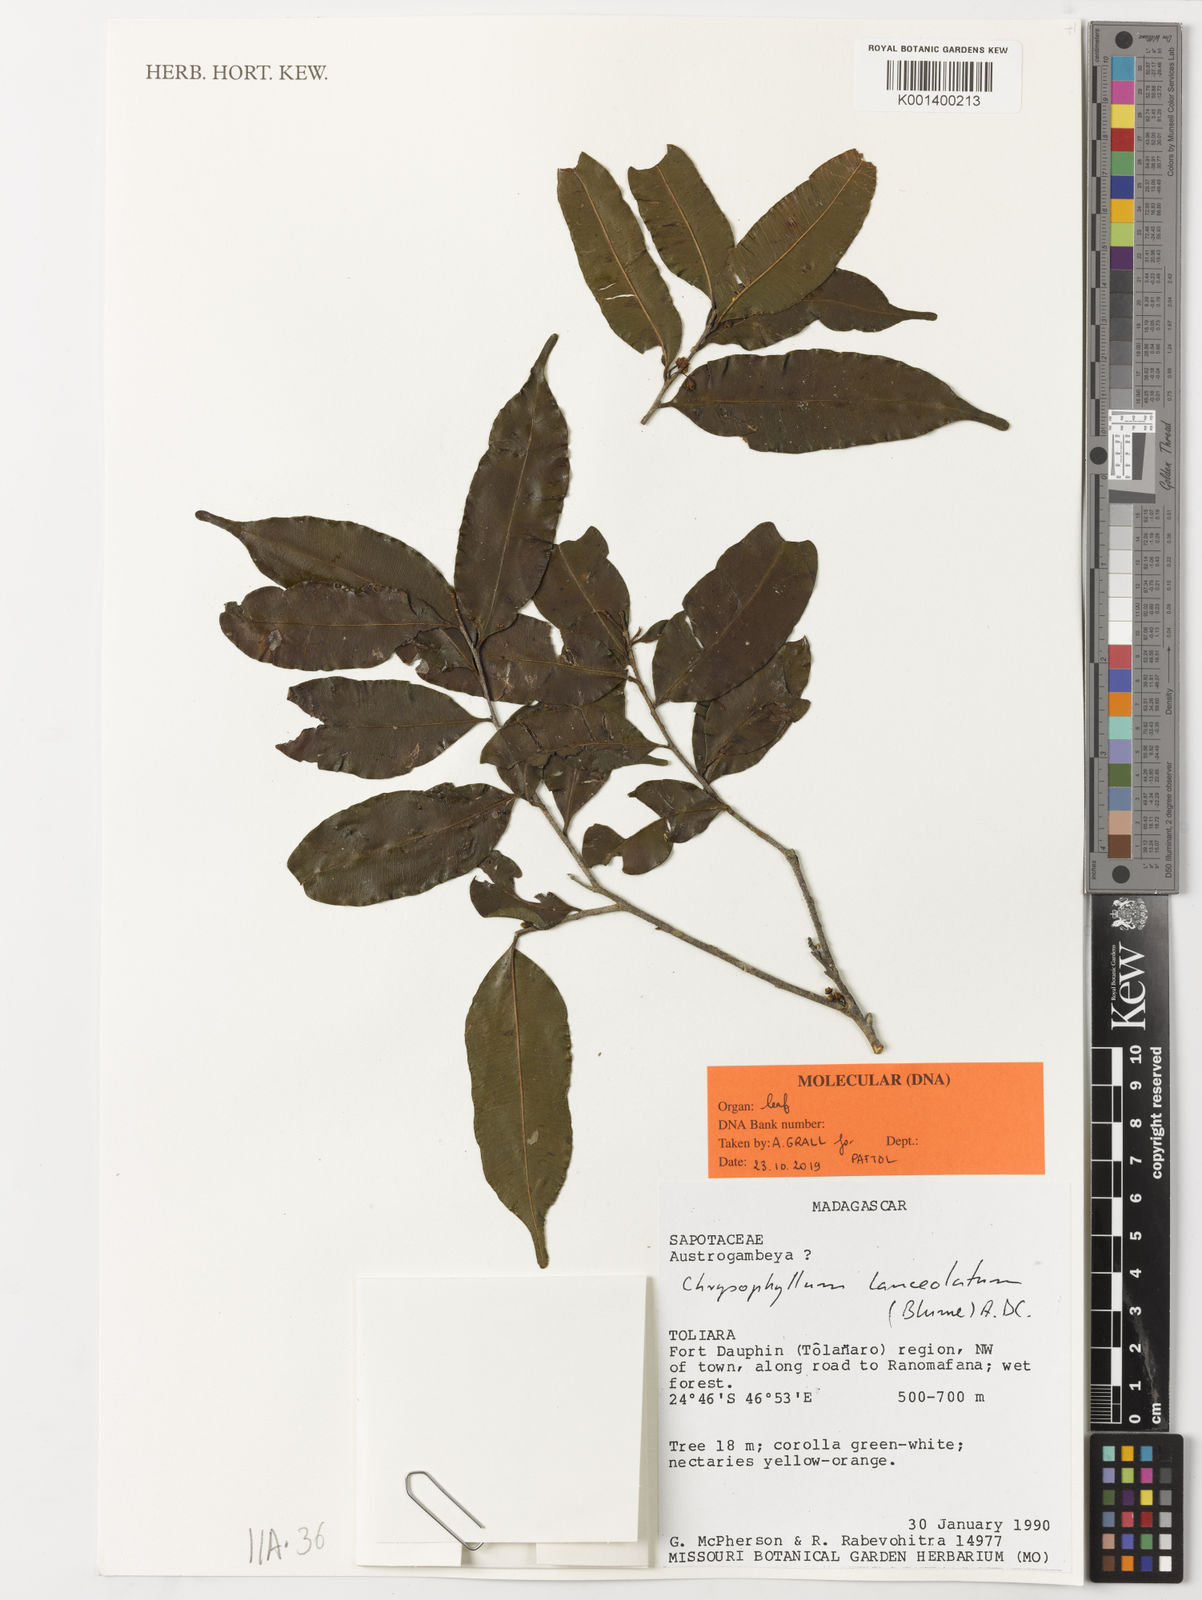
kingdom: Plantae
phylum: Tracheophyta
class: Magnoliopsida
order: Ericales
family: Sapotaceae
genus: Donella
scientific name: Donella lanceolata
